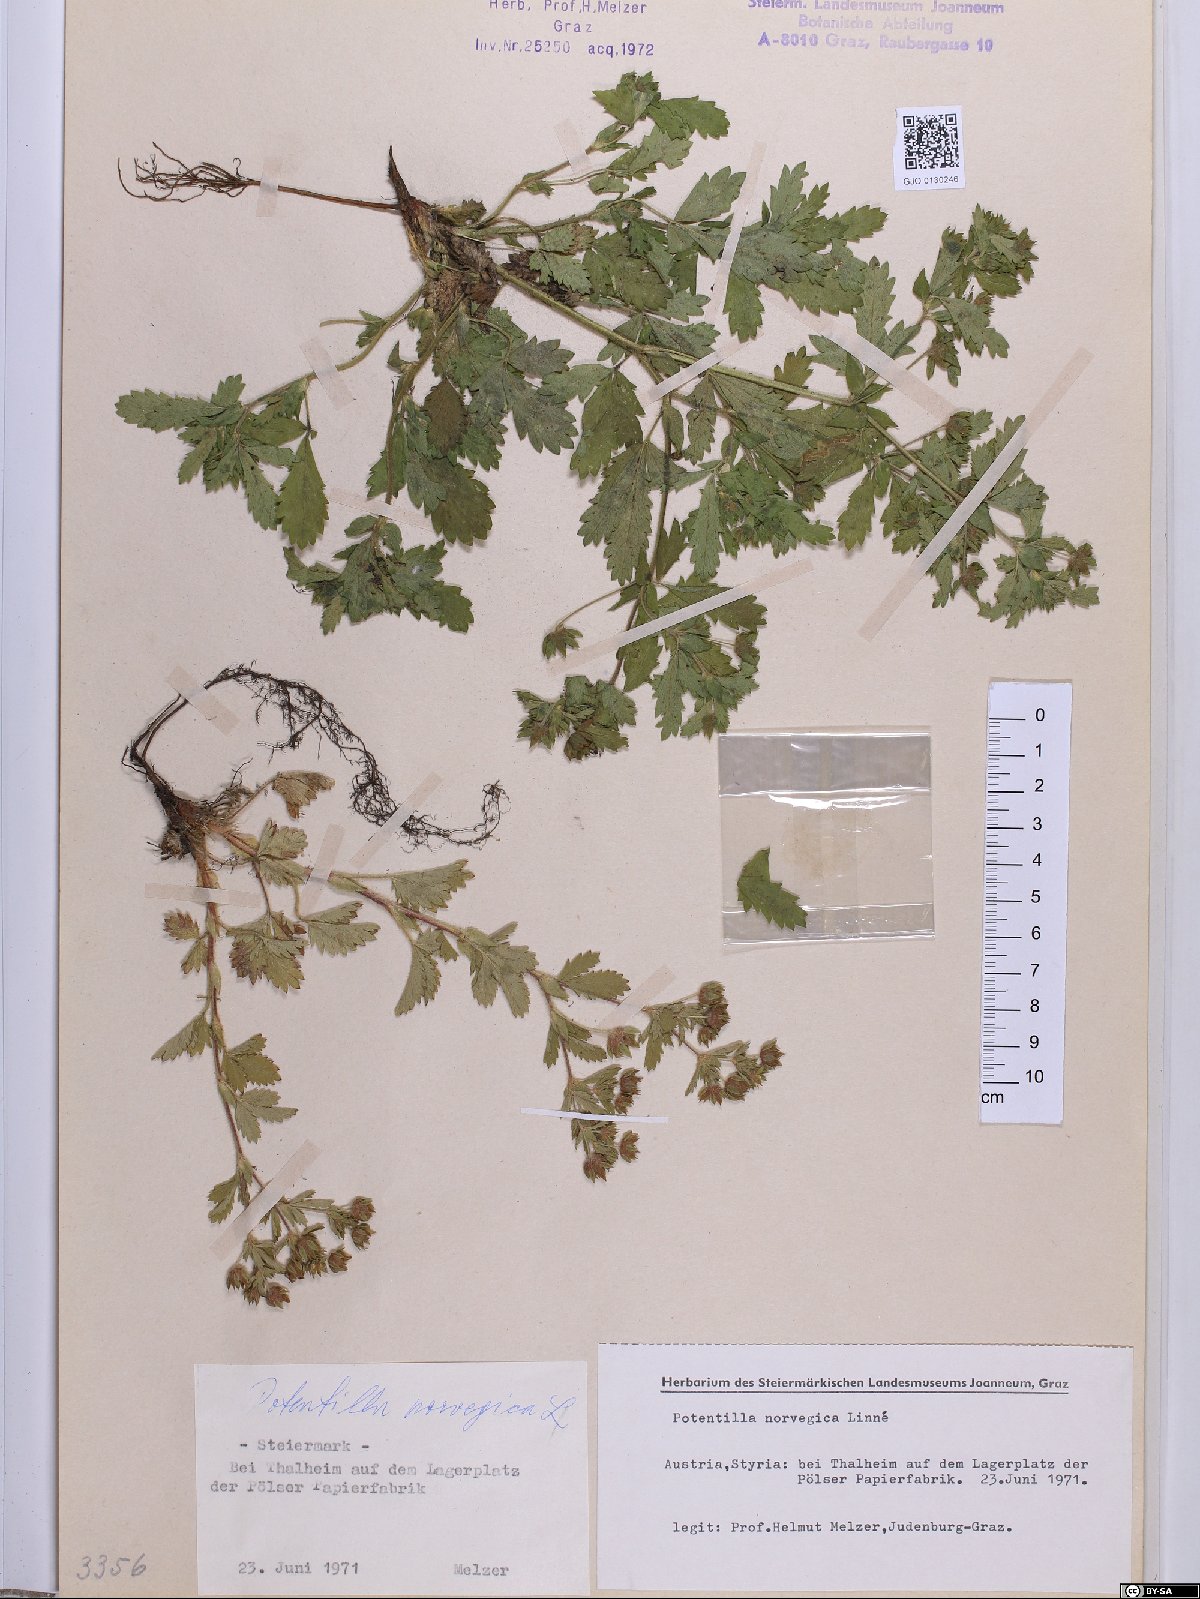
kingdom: Plantae
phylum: Tracheophyta
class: Magnoliopsida
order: Rosales
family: Rosaceae
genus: Potentilla
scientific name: Potentilla norvegica
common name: Ternate-leaved cinquefoil
